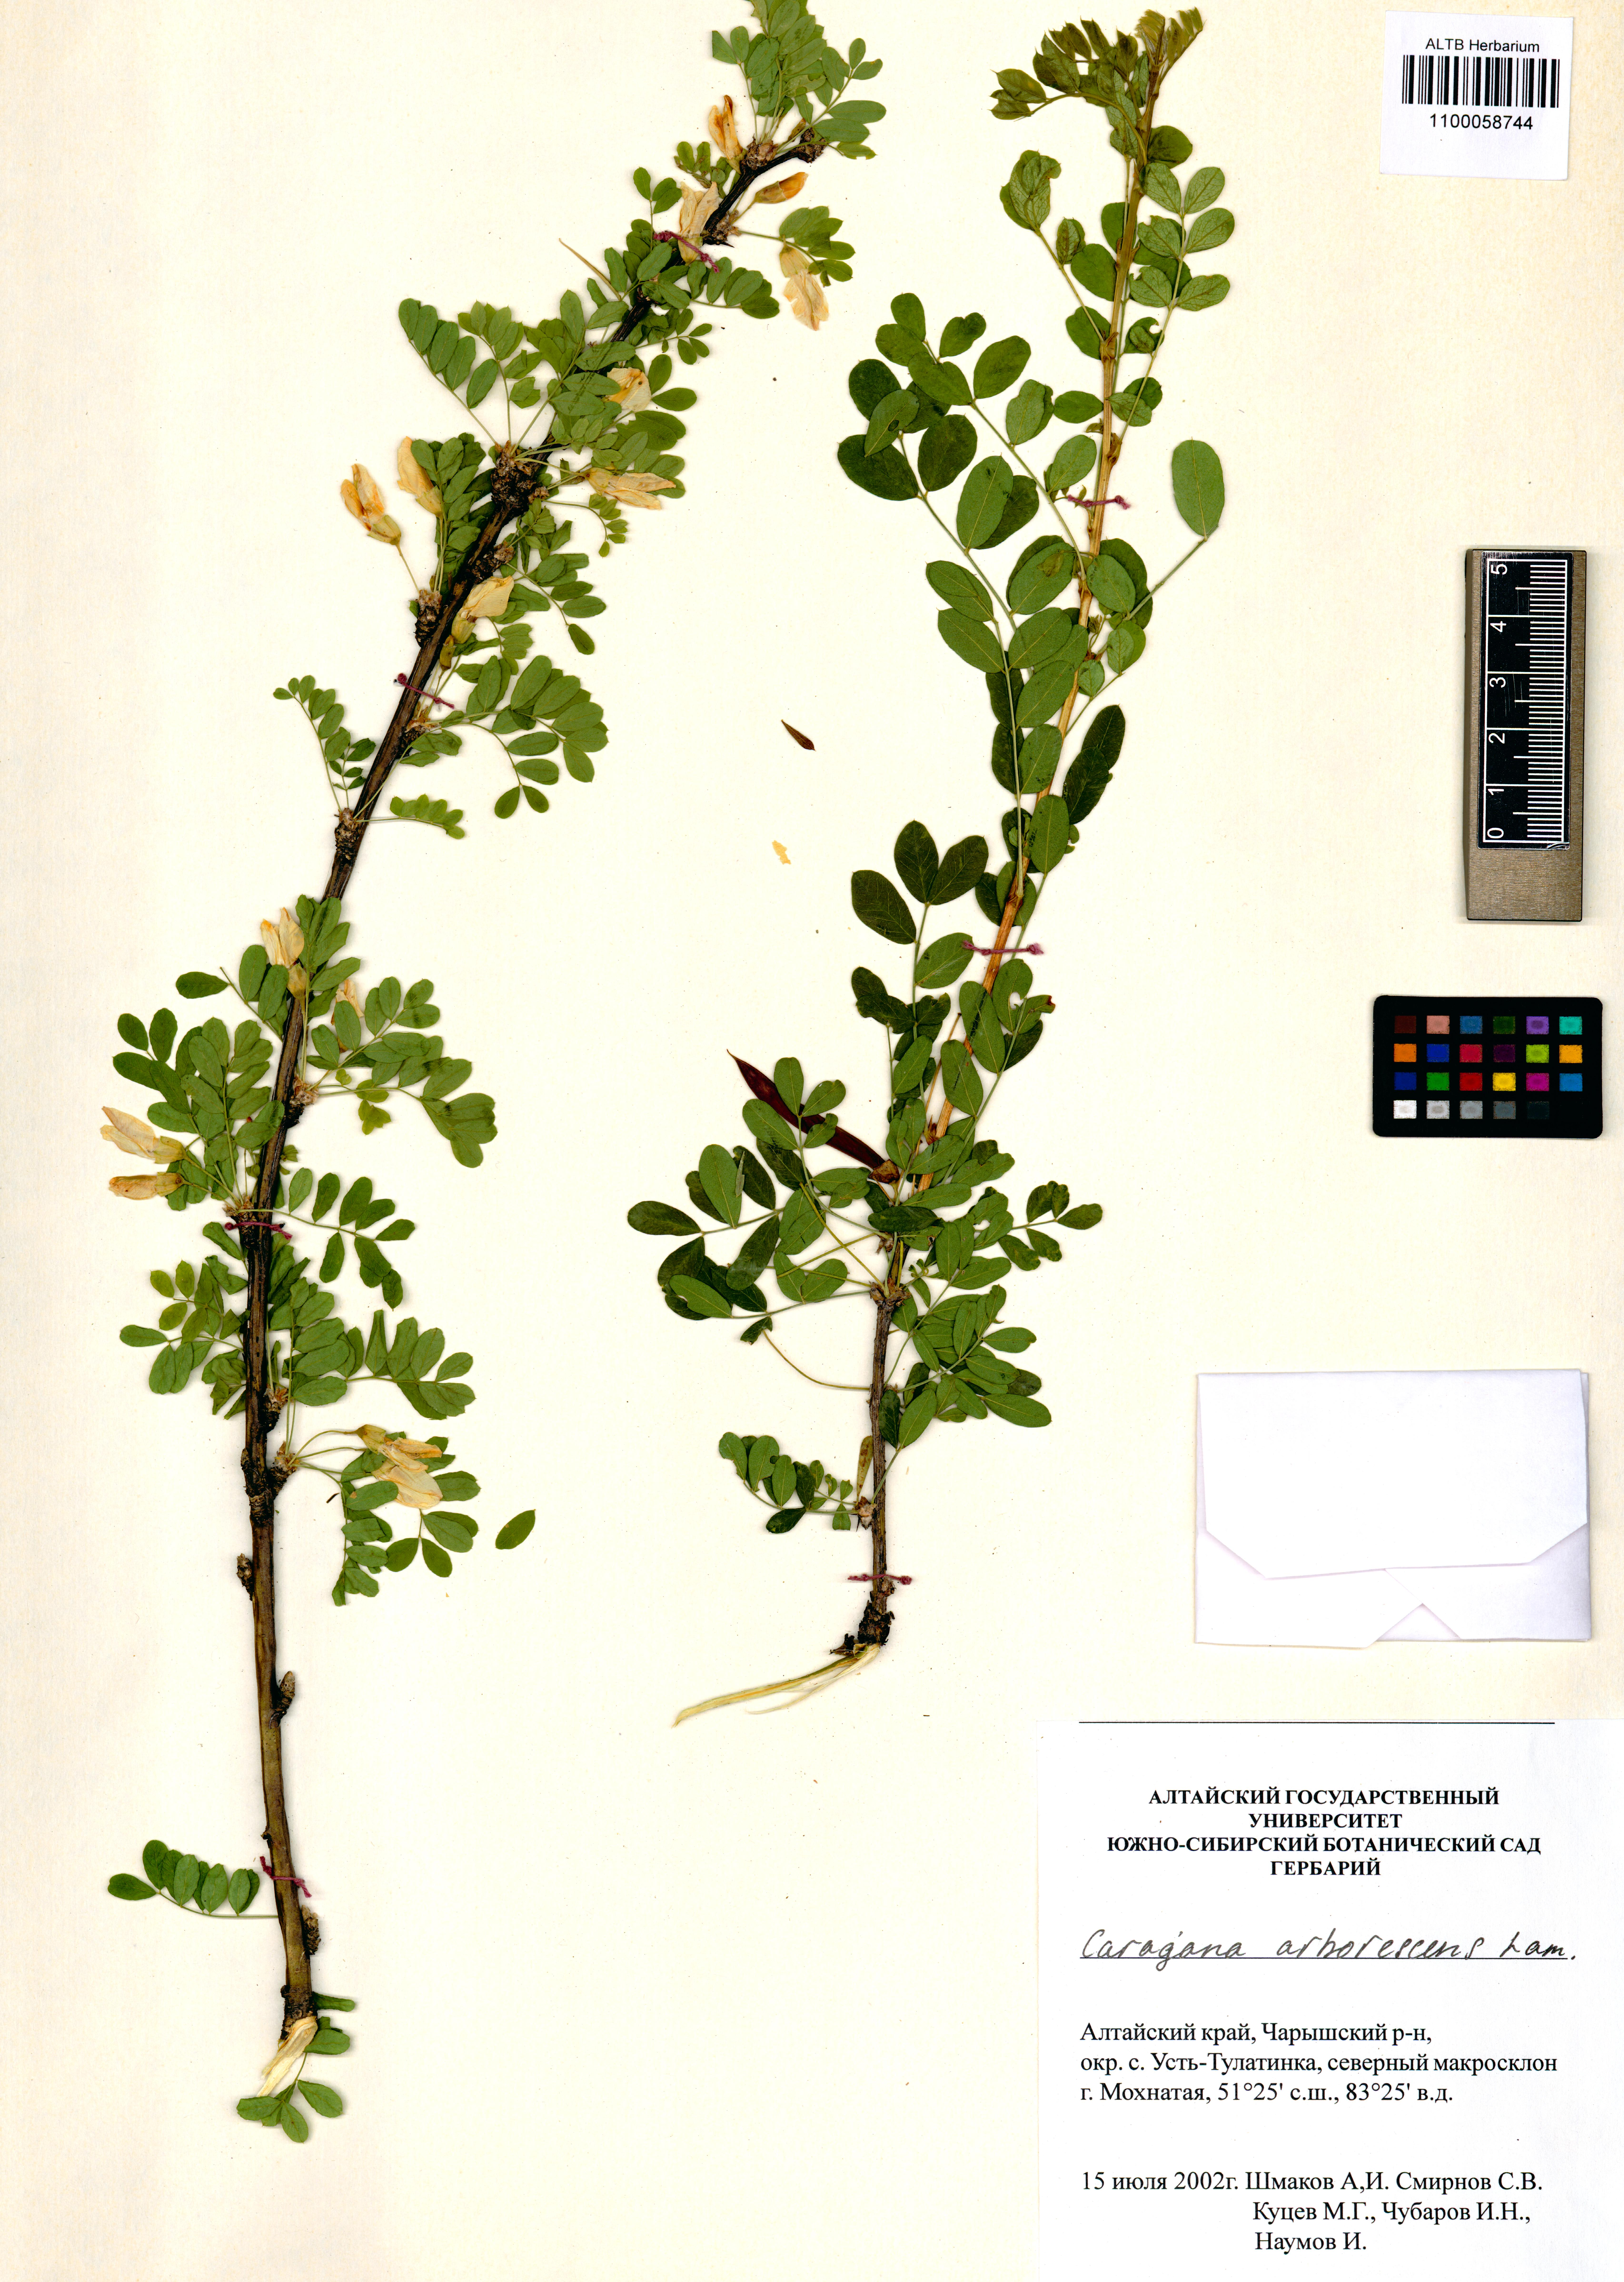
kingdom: Plantae
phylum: Tracheophyta
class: Magnoliopsida
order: Fabales
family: Fabaceae
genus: Caragana
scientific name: Caragana arborescens
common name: Siberian peashrub
